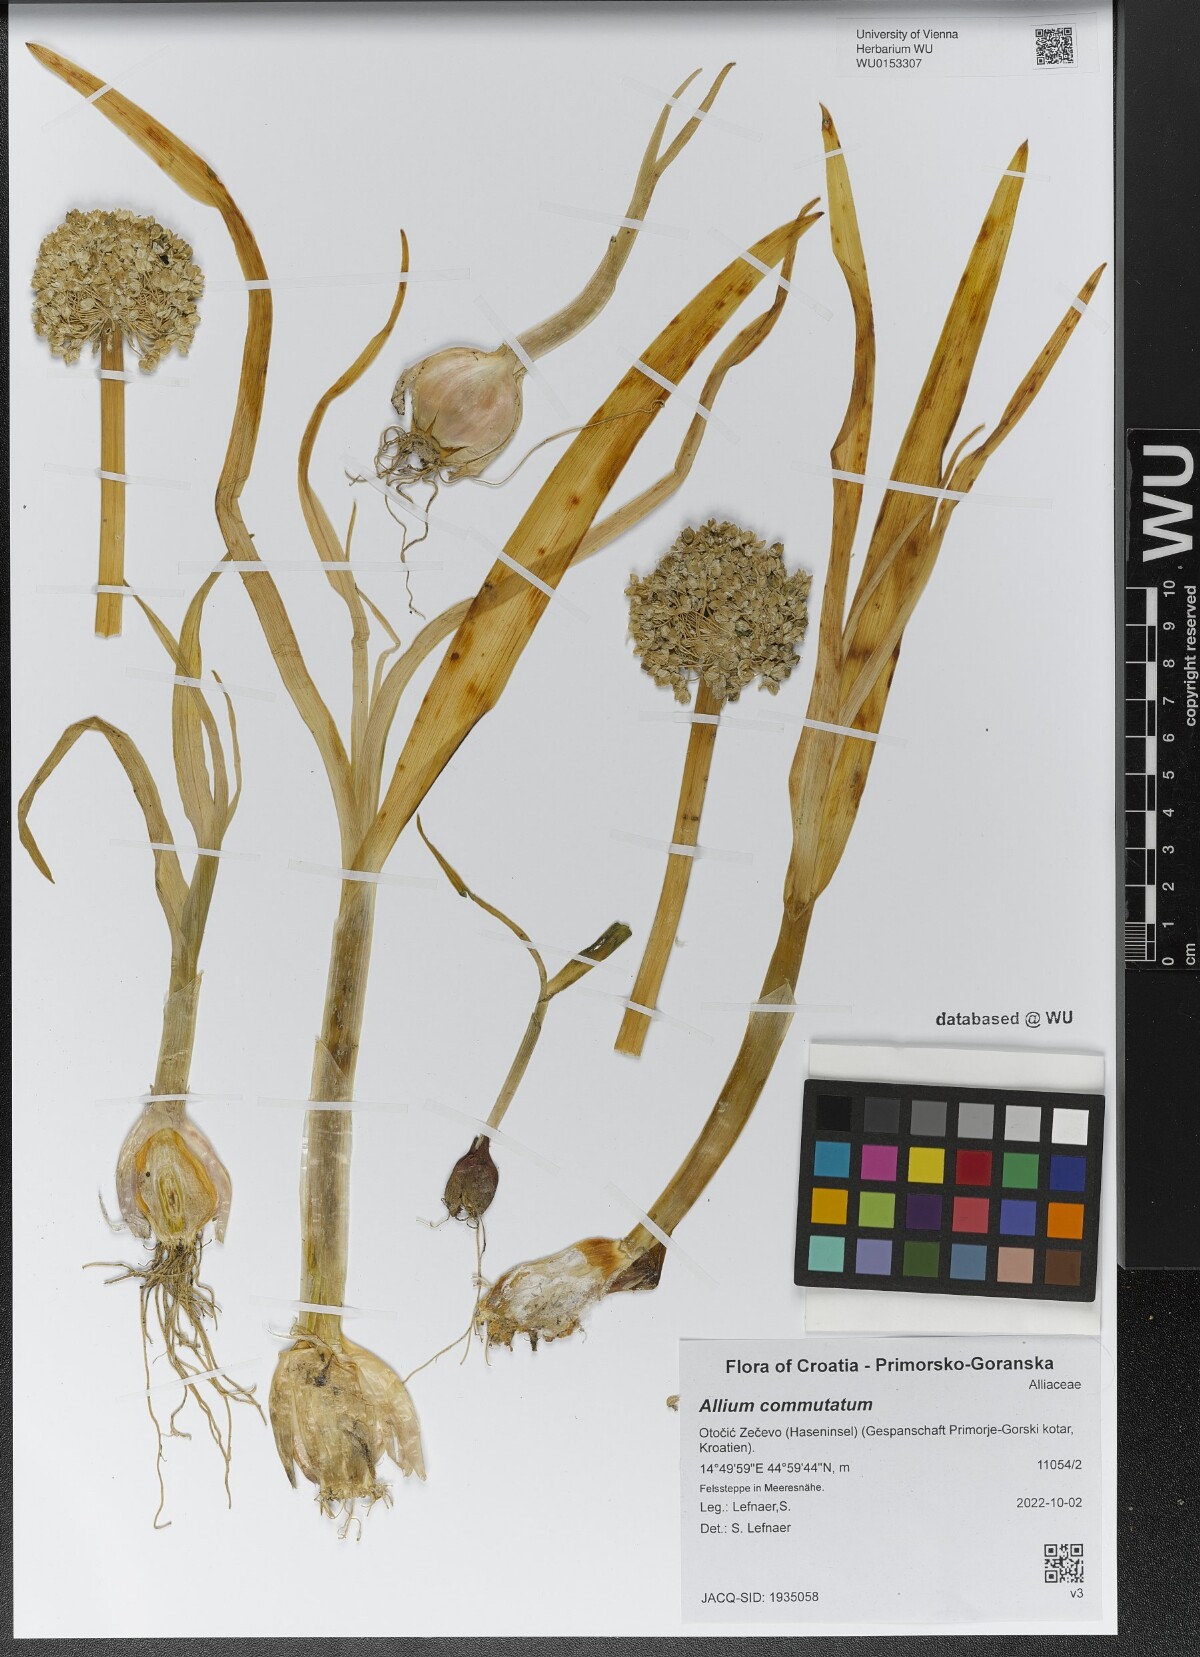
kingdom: Plantae
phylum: Tracheophyta
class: Liliopsida
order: Asparagales
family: Amaryllidaceae
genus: Allium
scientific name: Allium commutatum
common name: Sea garlic
